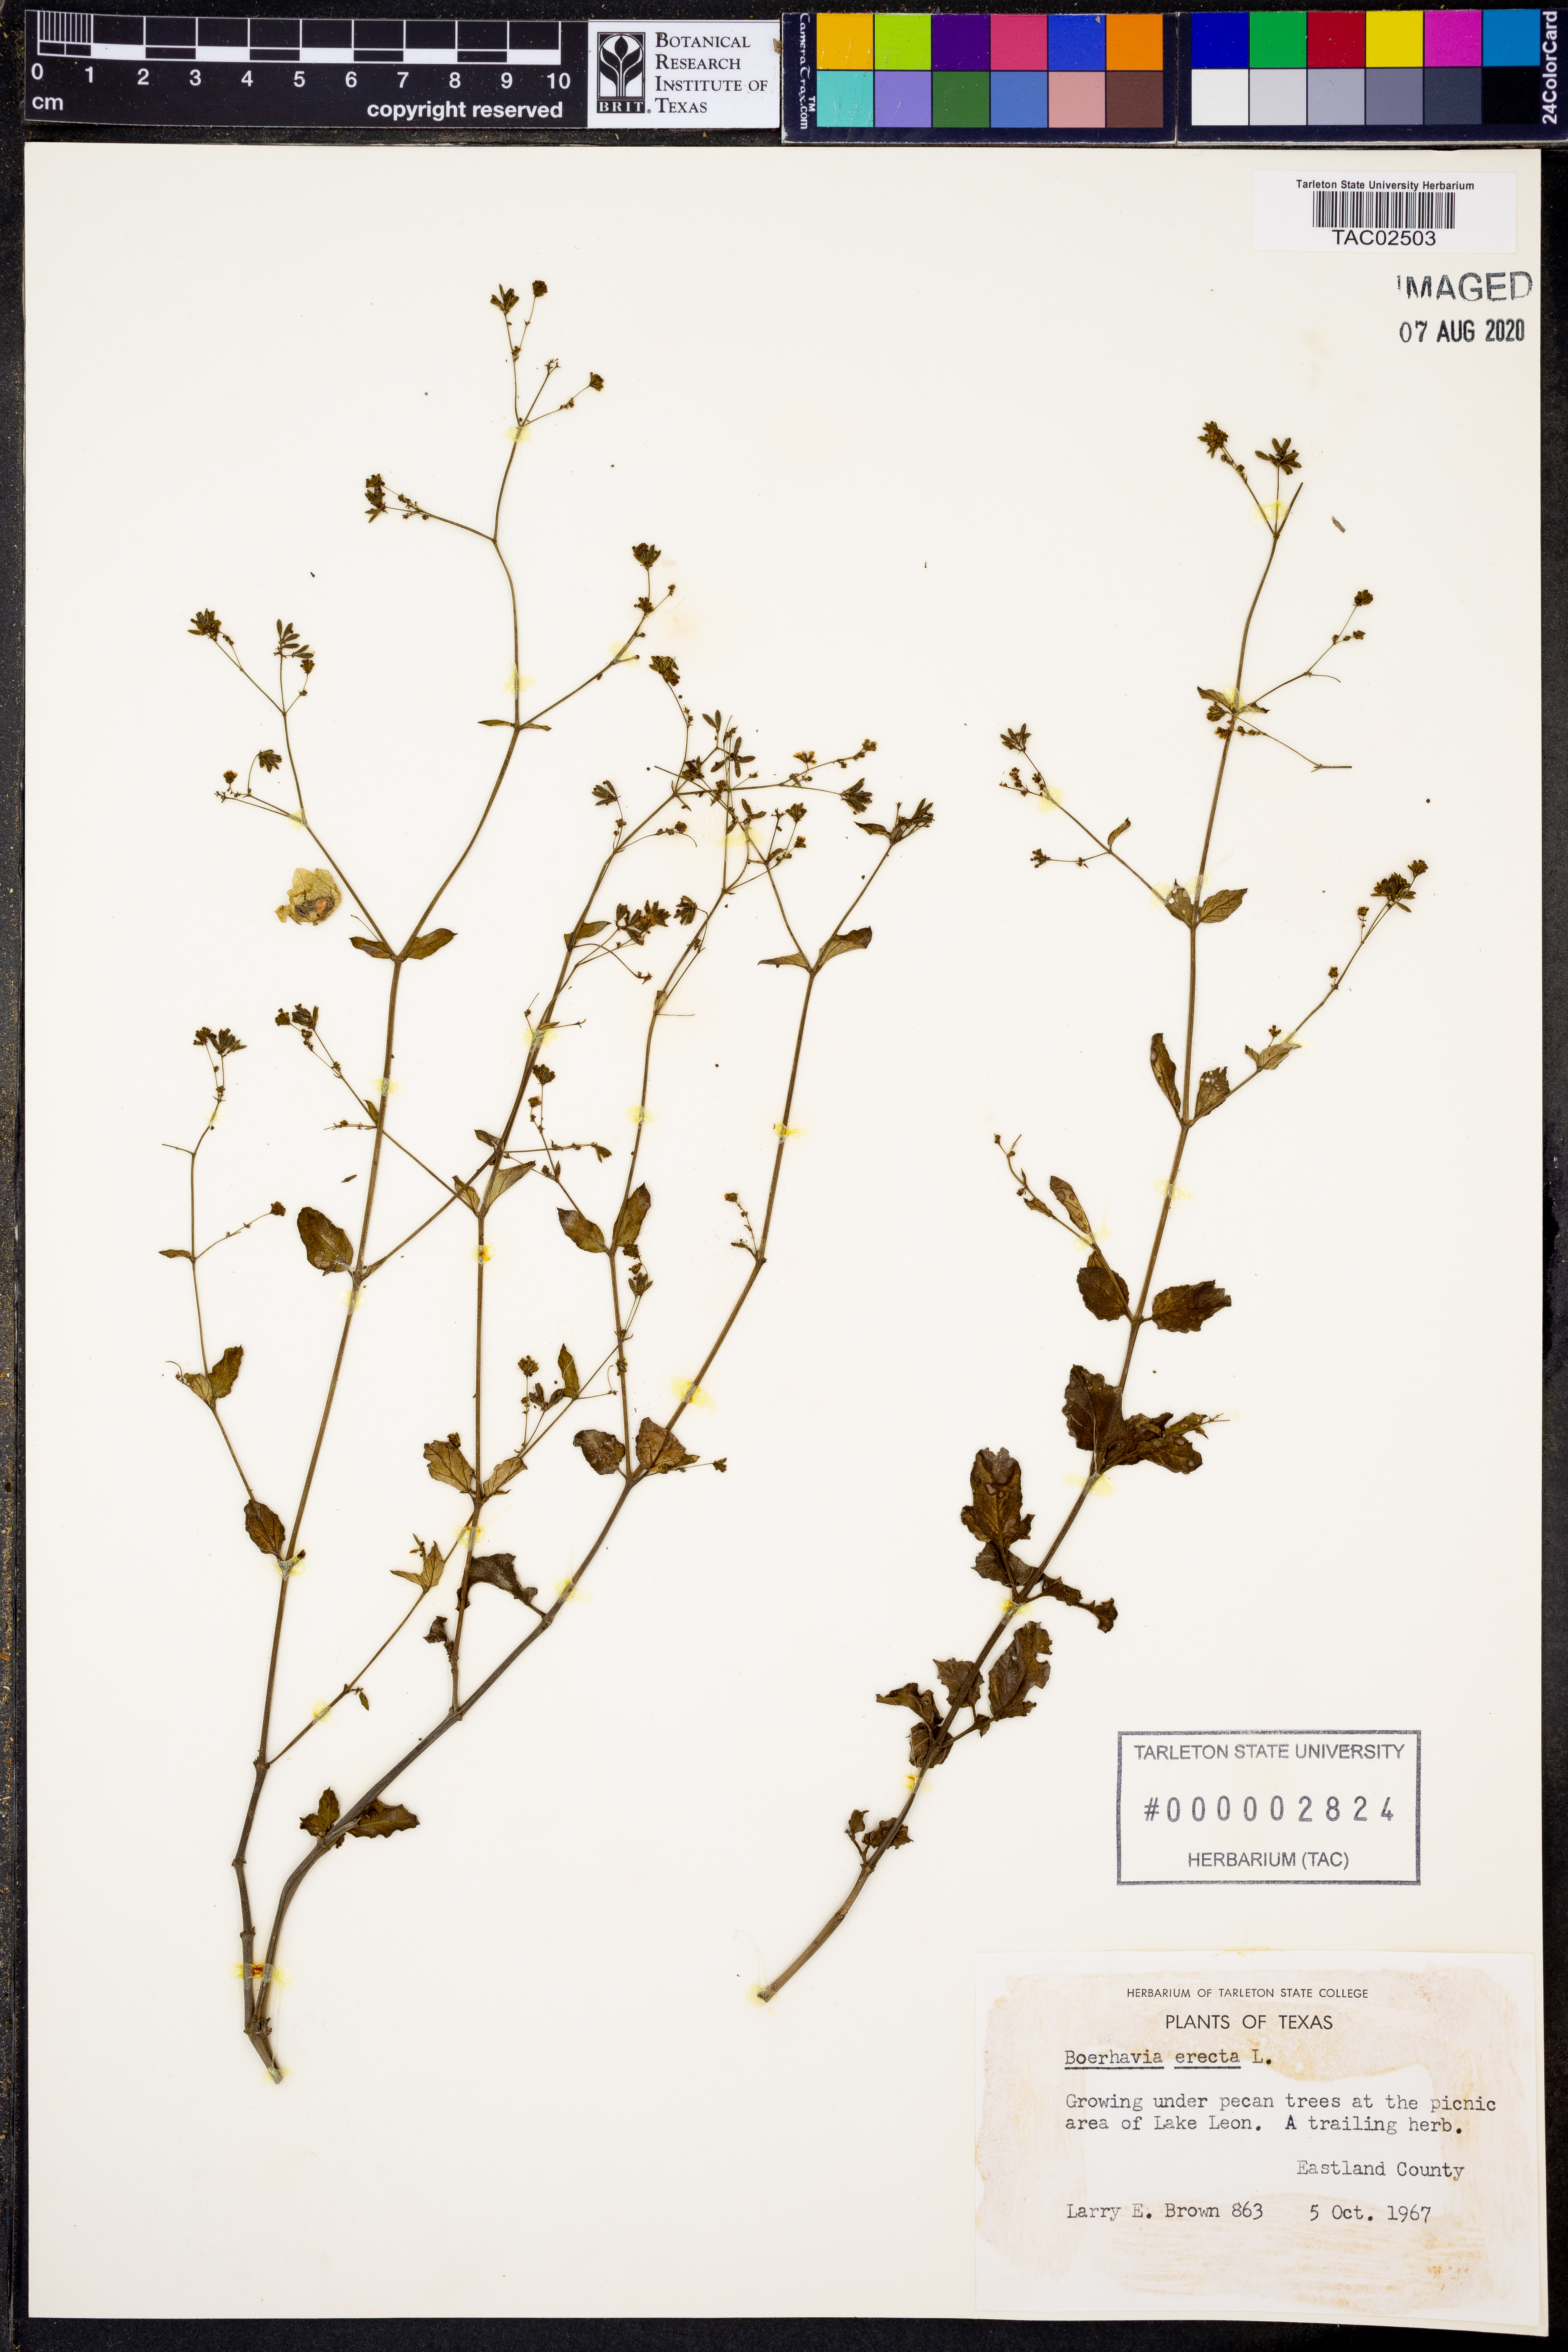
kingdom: Plantae
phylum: Tracheophyta
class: Magnoliopsida
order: Caryophyllales
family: Nyctaginaceae
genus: Boerhavia
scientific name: Boerhavia erecta
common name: Erect spiderling
